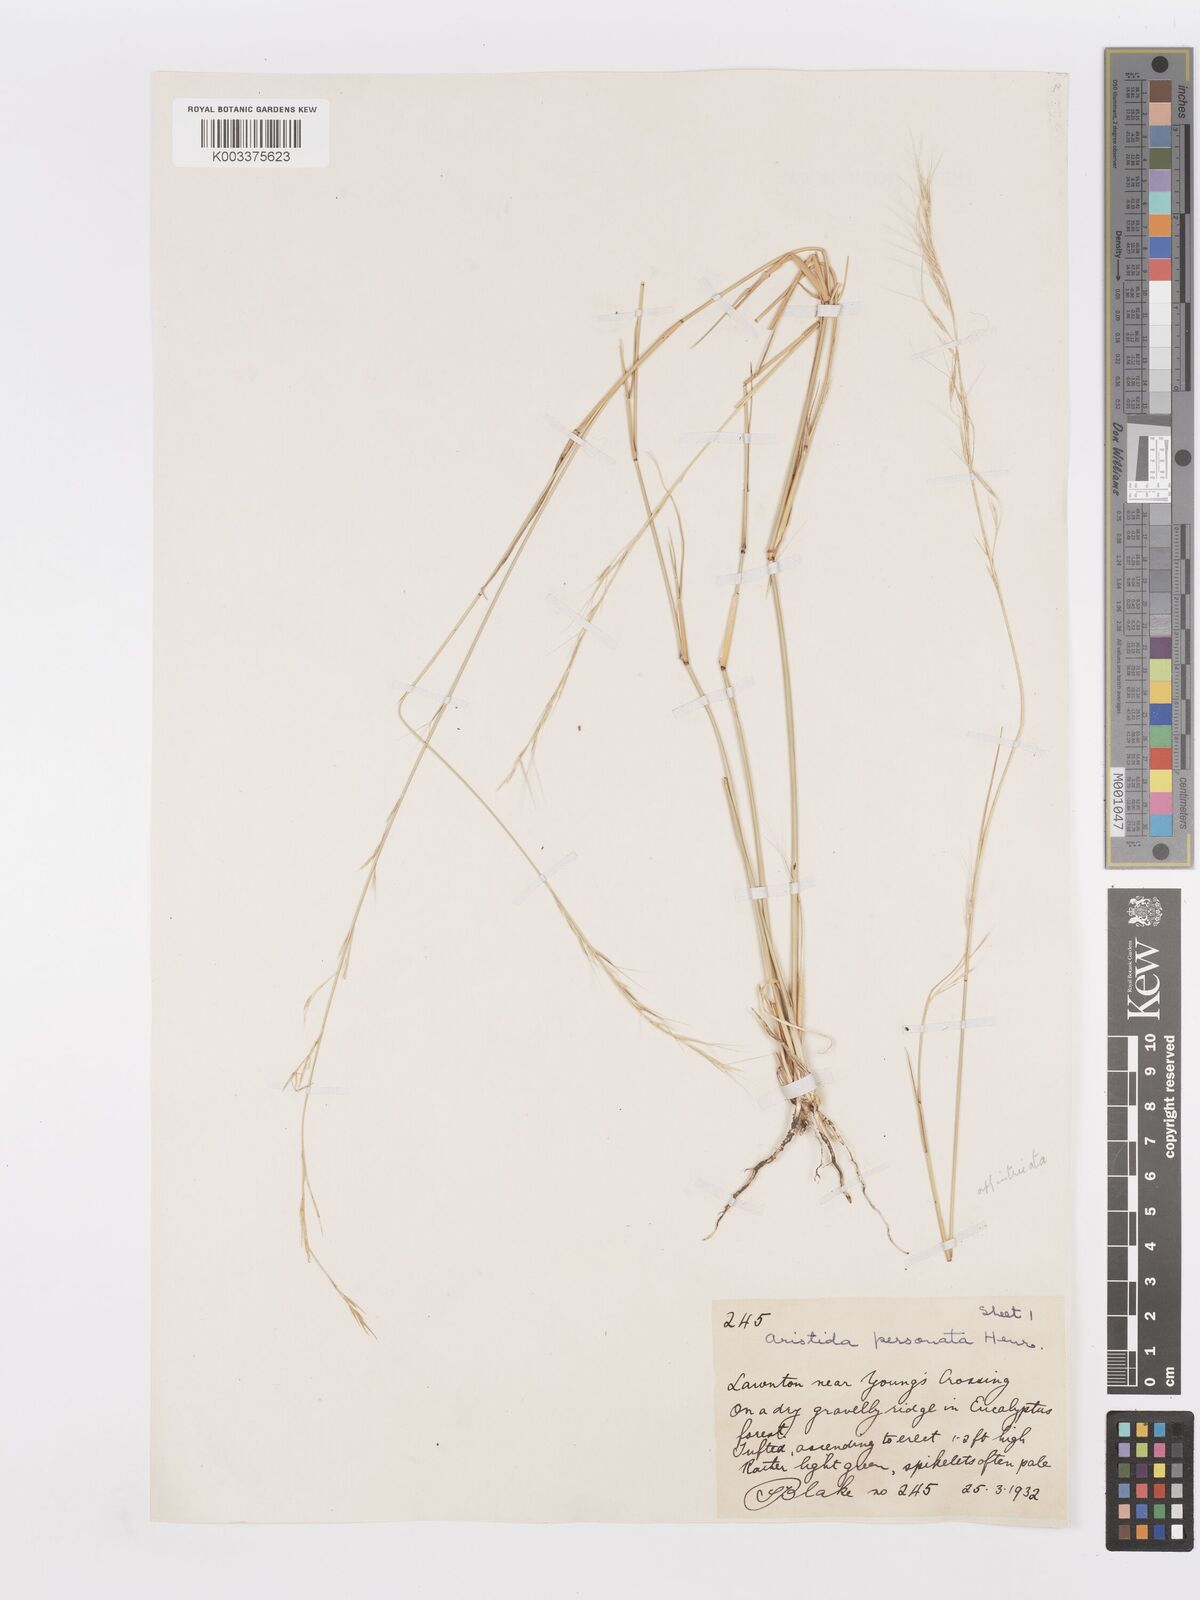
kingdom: Plantae
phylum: Tracheophyta
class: Liliopsida
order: Poales
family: Poaceae
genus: Aristida
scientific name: Aristida personata
